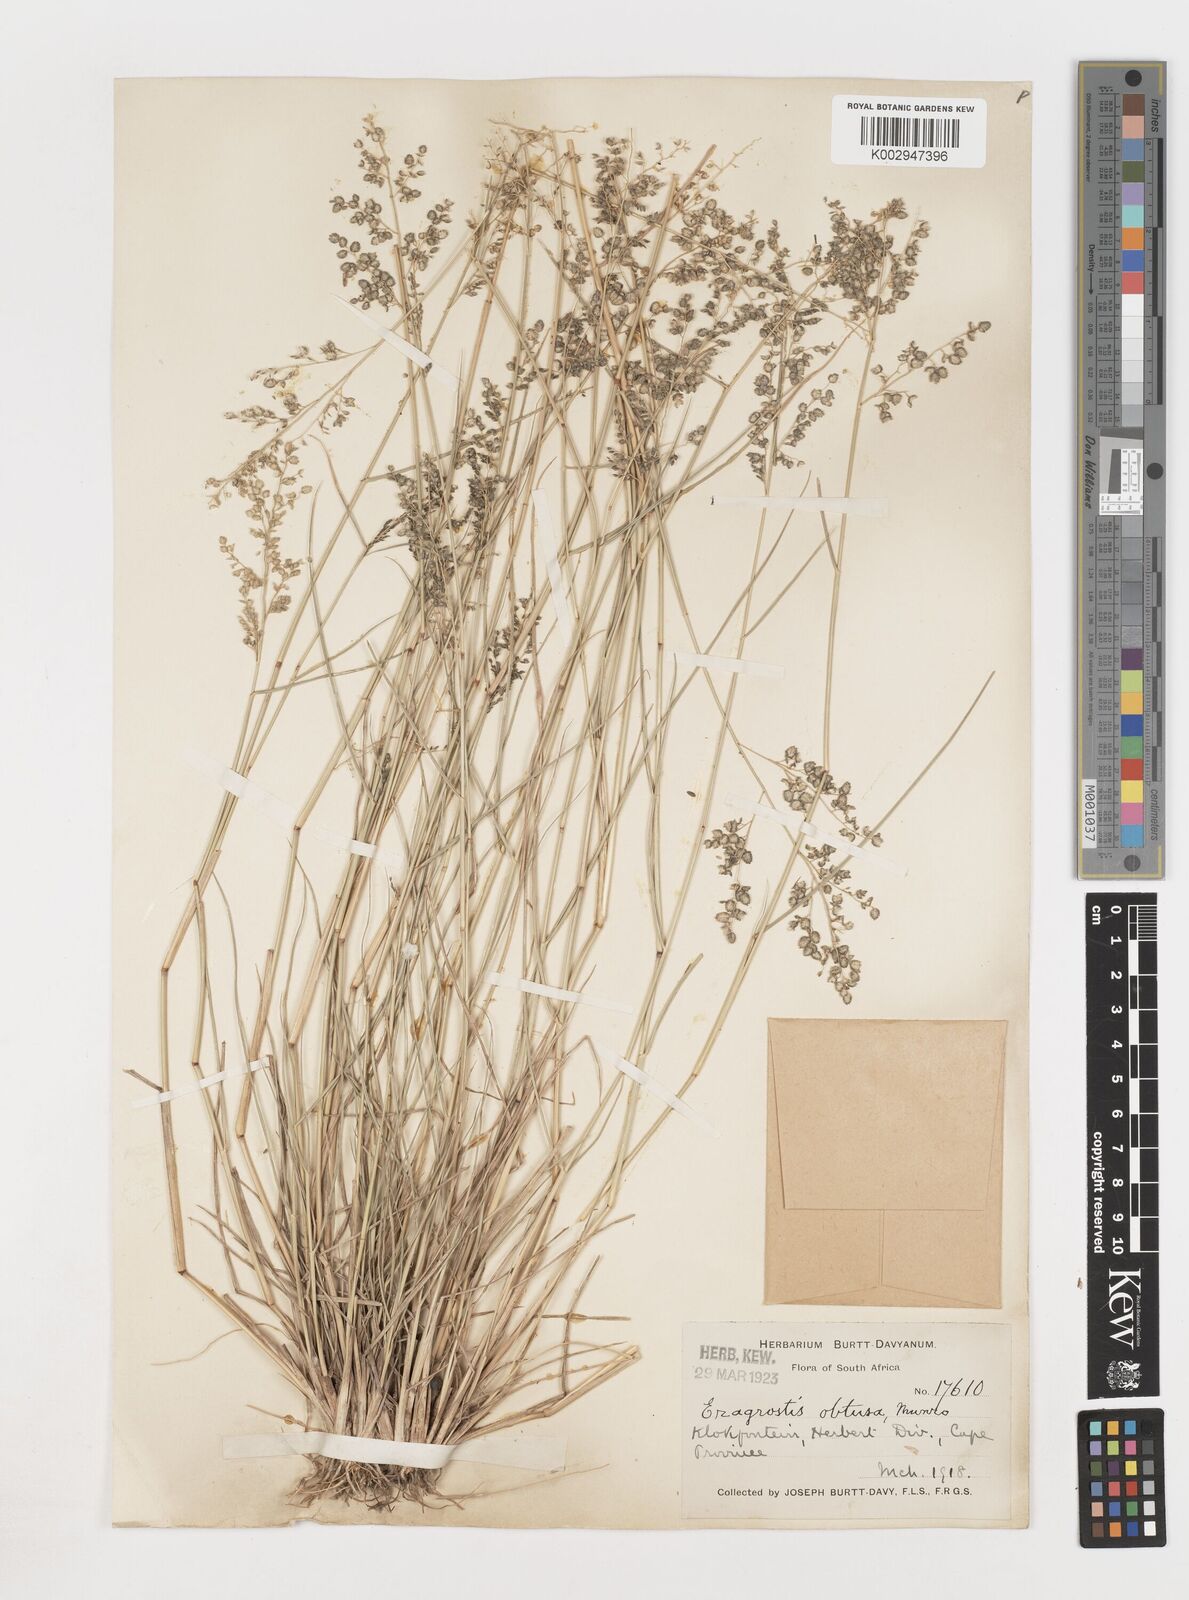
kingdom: Plantae
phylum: Tracheophyta
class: Liliopsida
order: Poales
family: Poaceae
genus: Eragrostis
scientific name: Eragrostis
